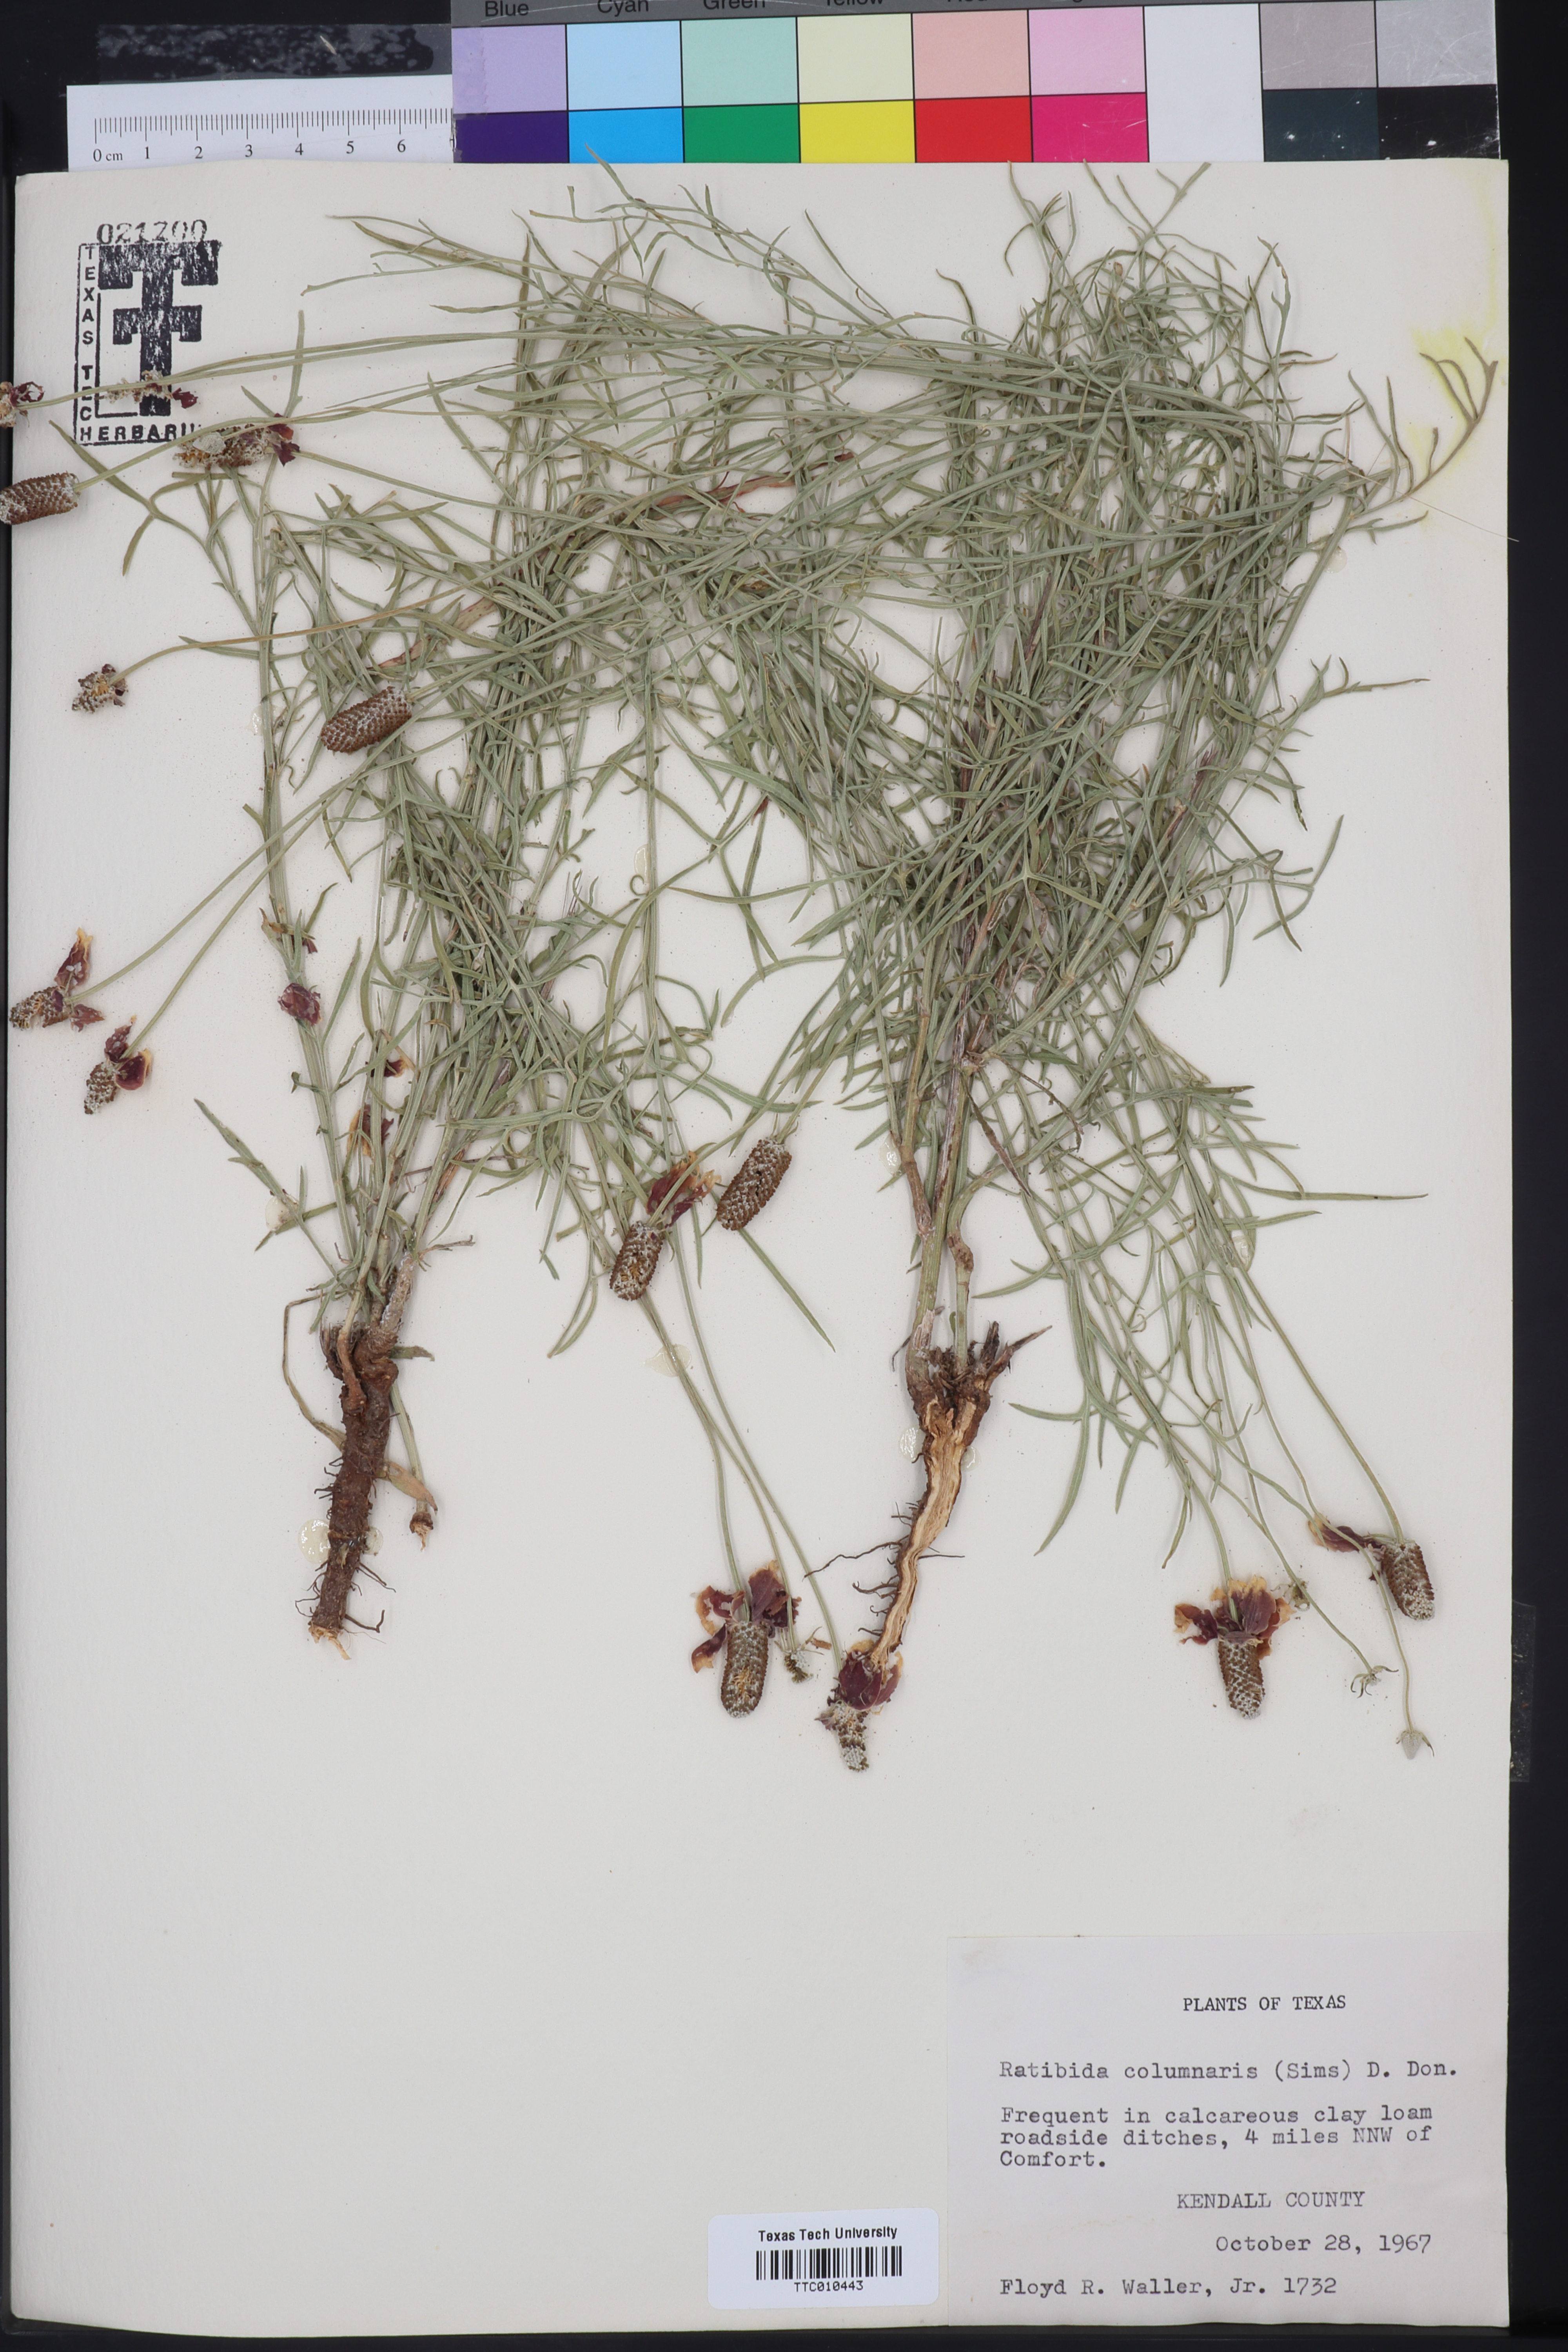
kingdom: Plantae
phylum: Tracheophyta
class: Magnoliopsida
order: Asterales
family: Asteraceae
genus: Ratibida
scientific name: Ratibida columnifera
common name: Prairie coneflower
